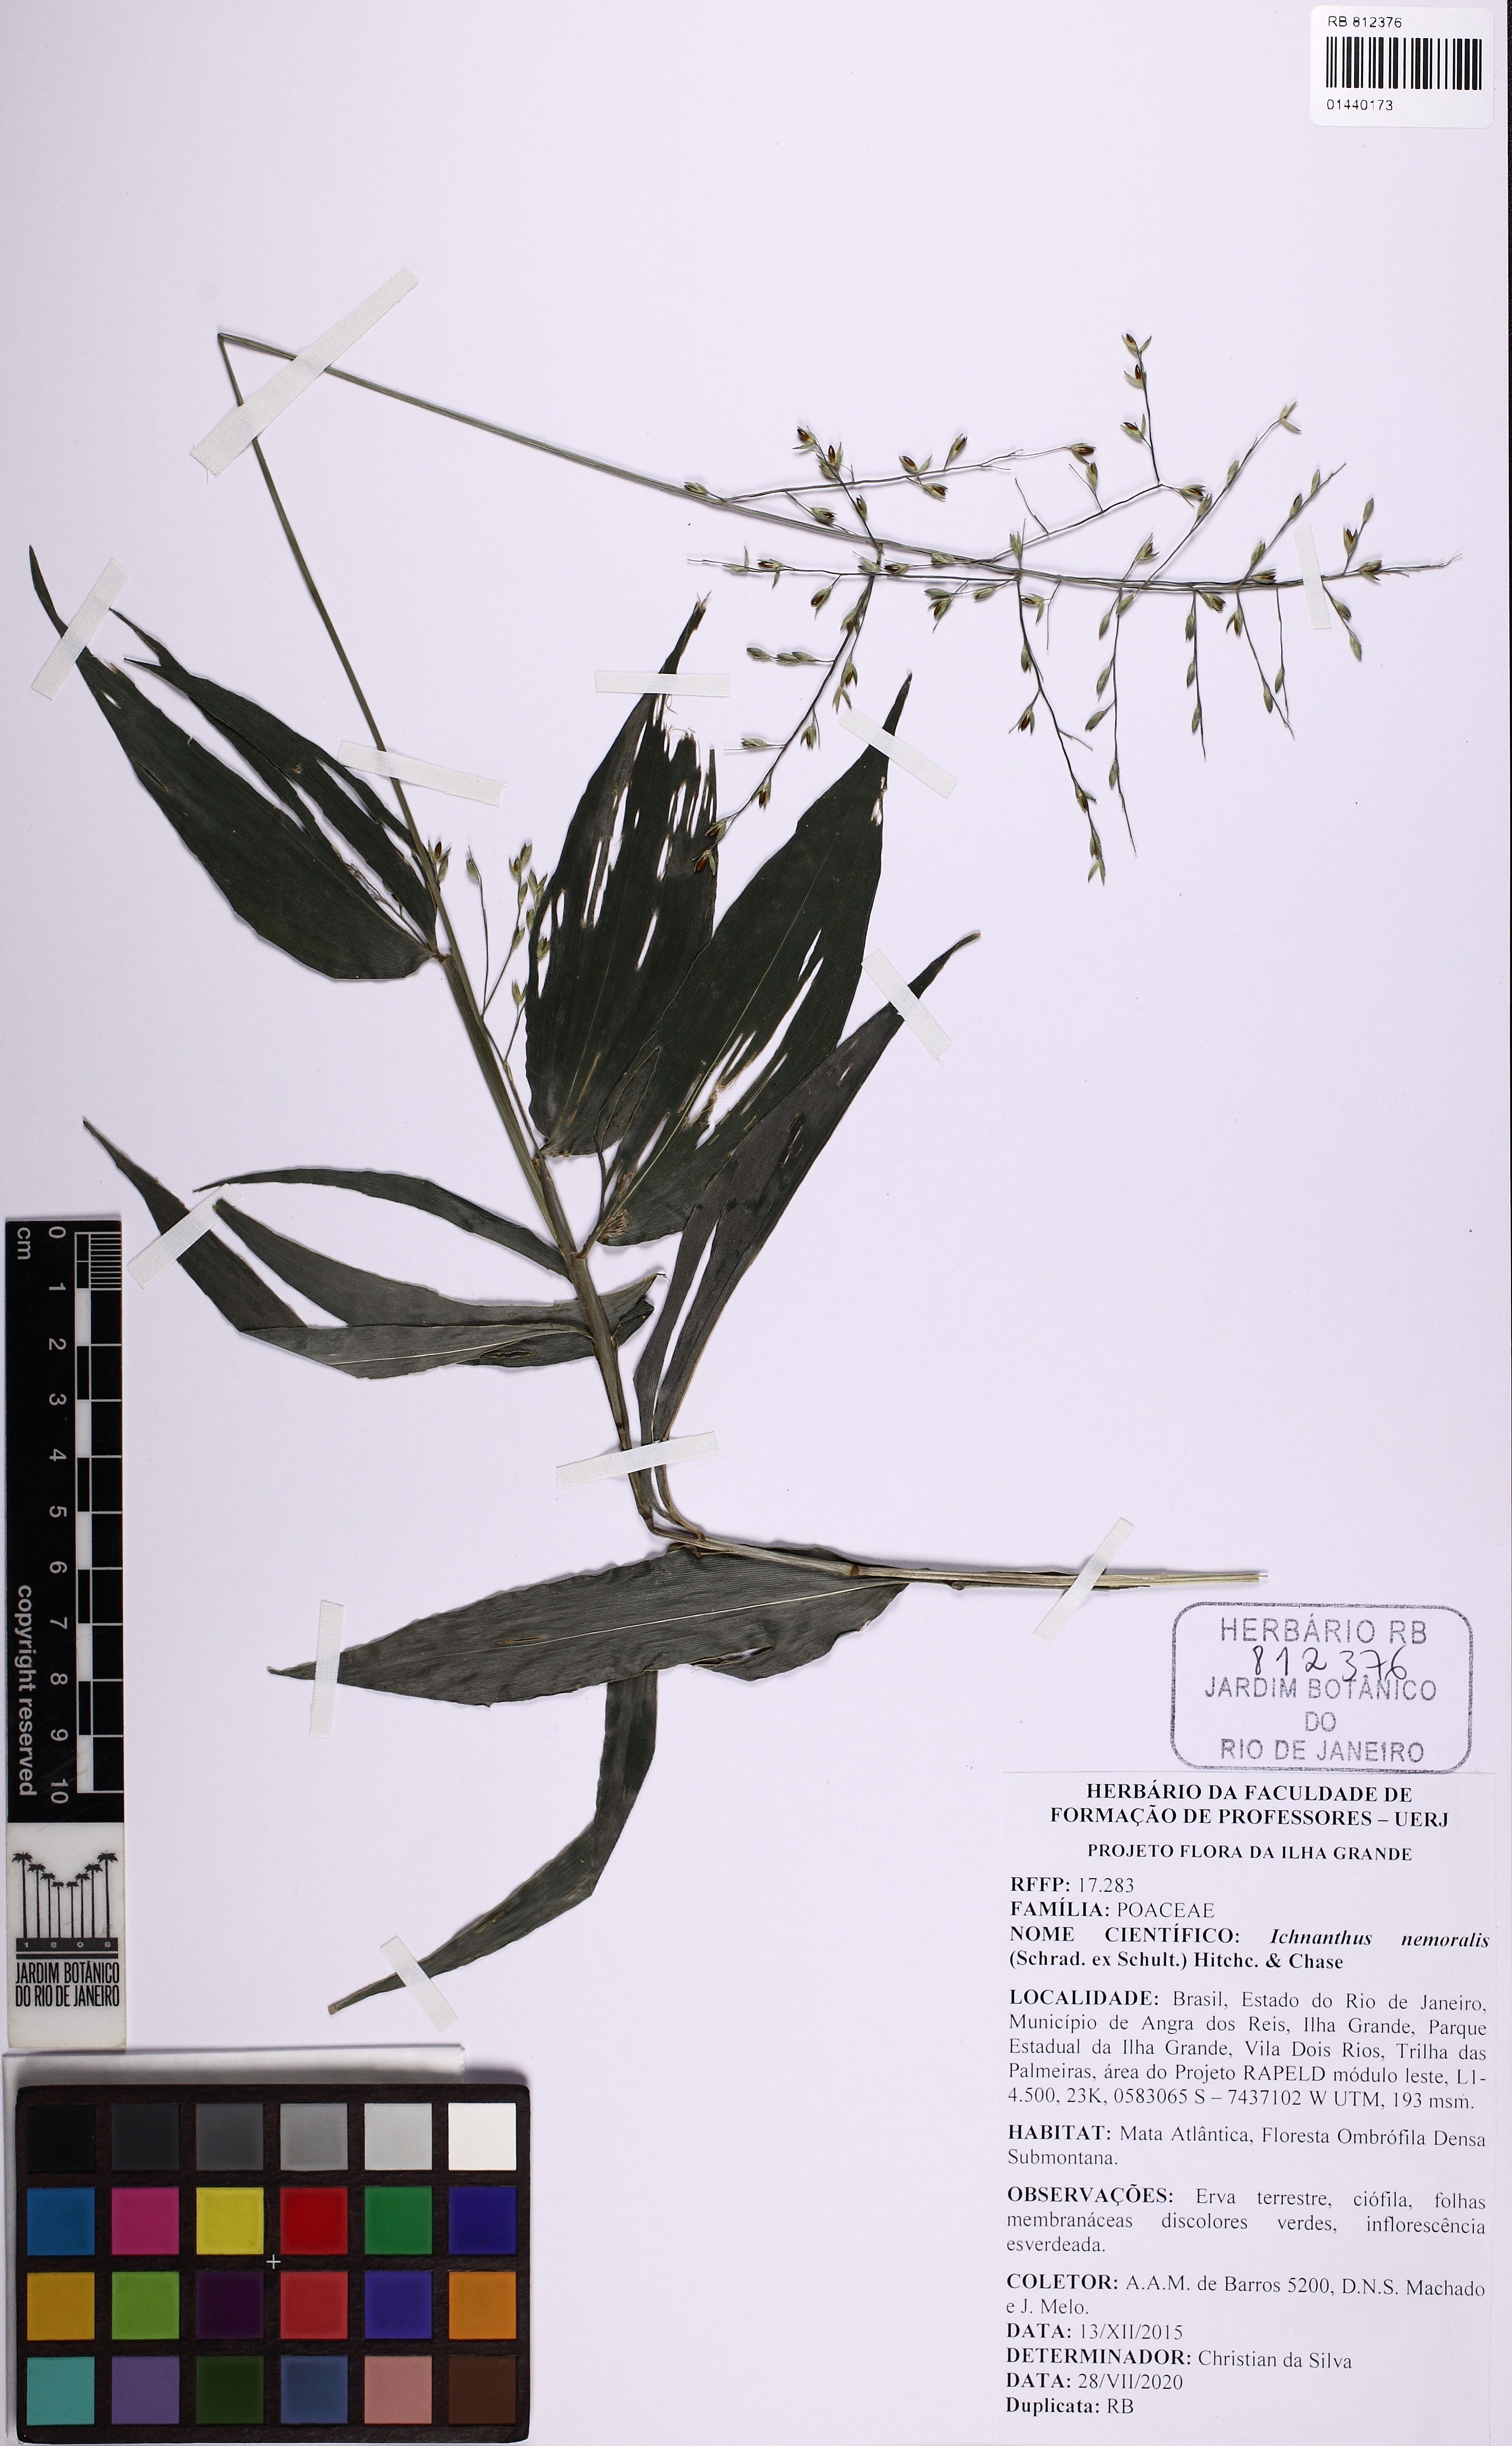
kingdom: Plantae
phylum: Tracheophyta
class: Liliopsida
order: Poales
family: Poaceae
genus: Ichnanthus
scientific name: Ichnanthus nemoralis
